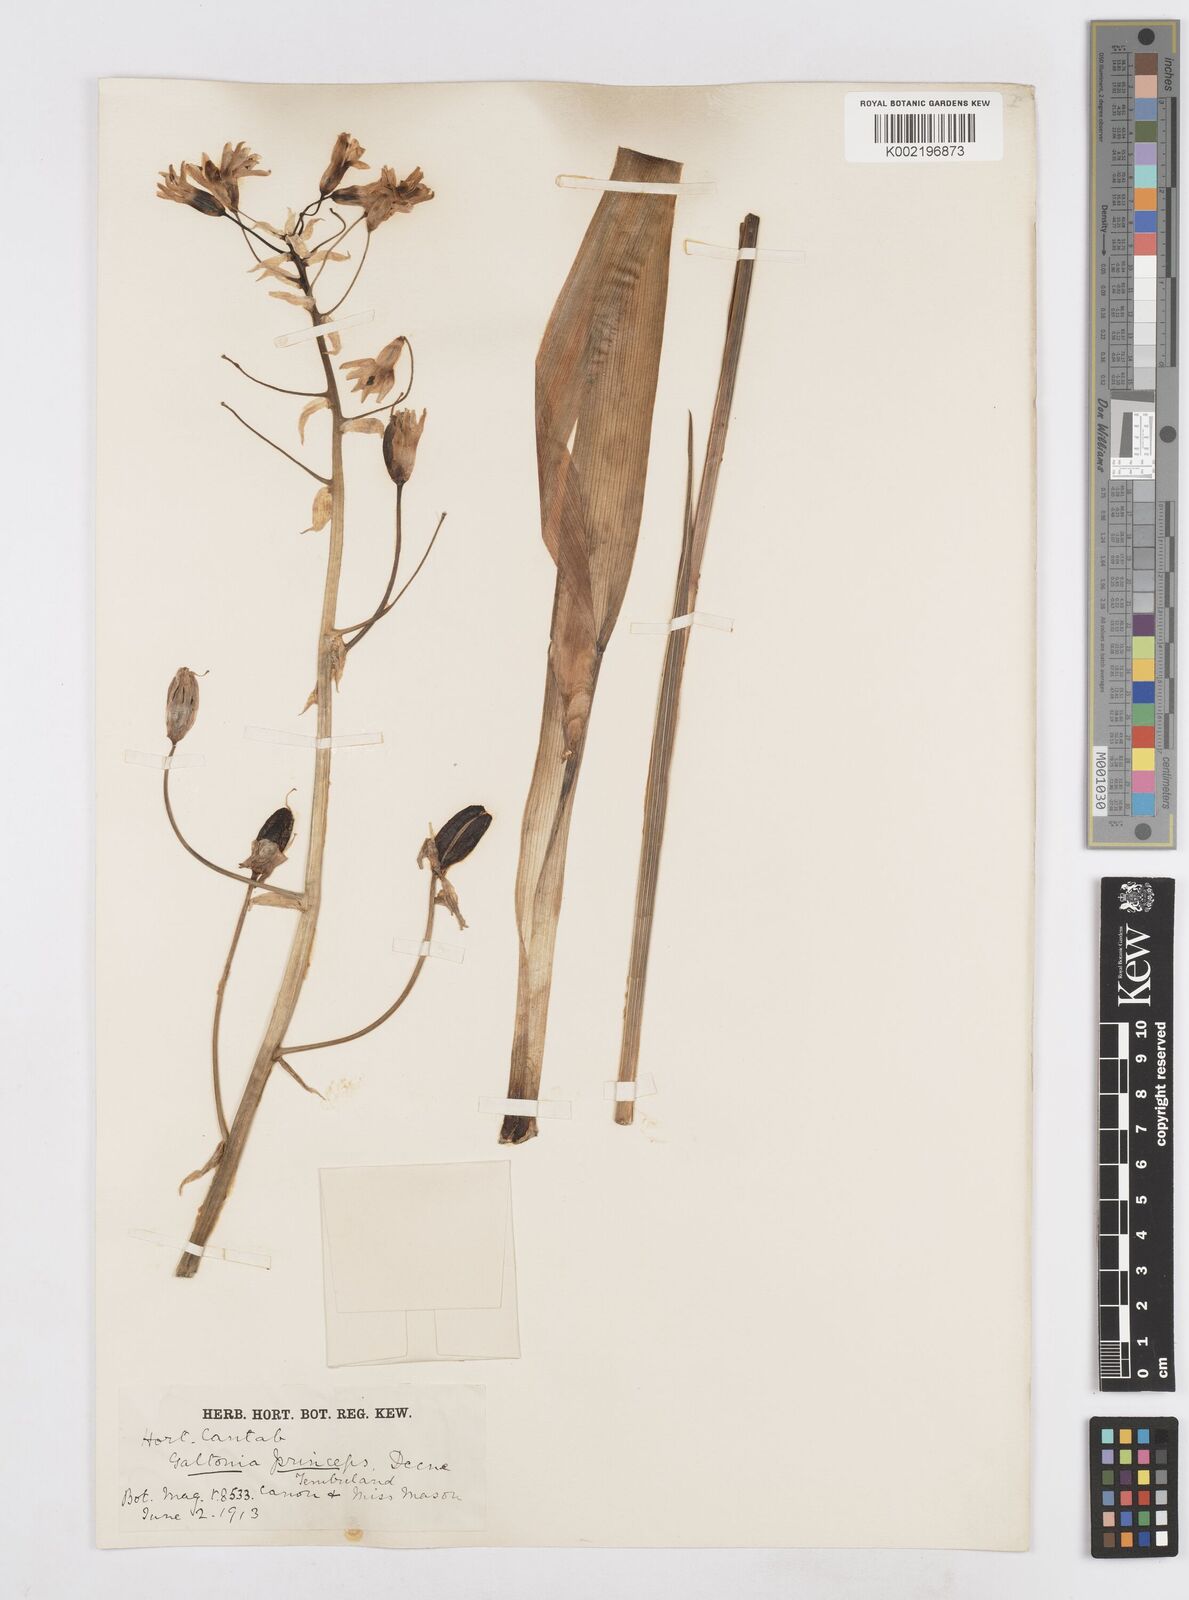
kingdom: Plantae
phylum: Tracheophyta
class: Liliopsida
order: Asparagales
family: Asparagaceae
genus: Ornithogalum
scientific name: Ornithogalum princeps
